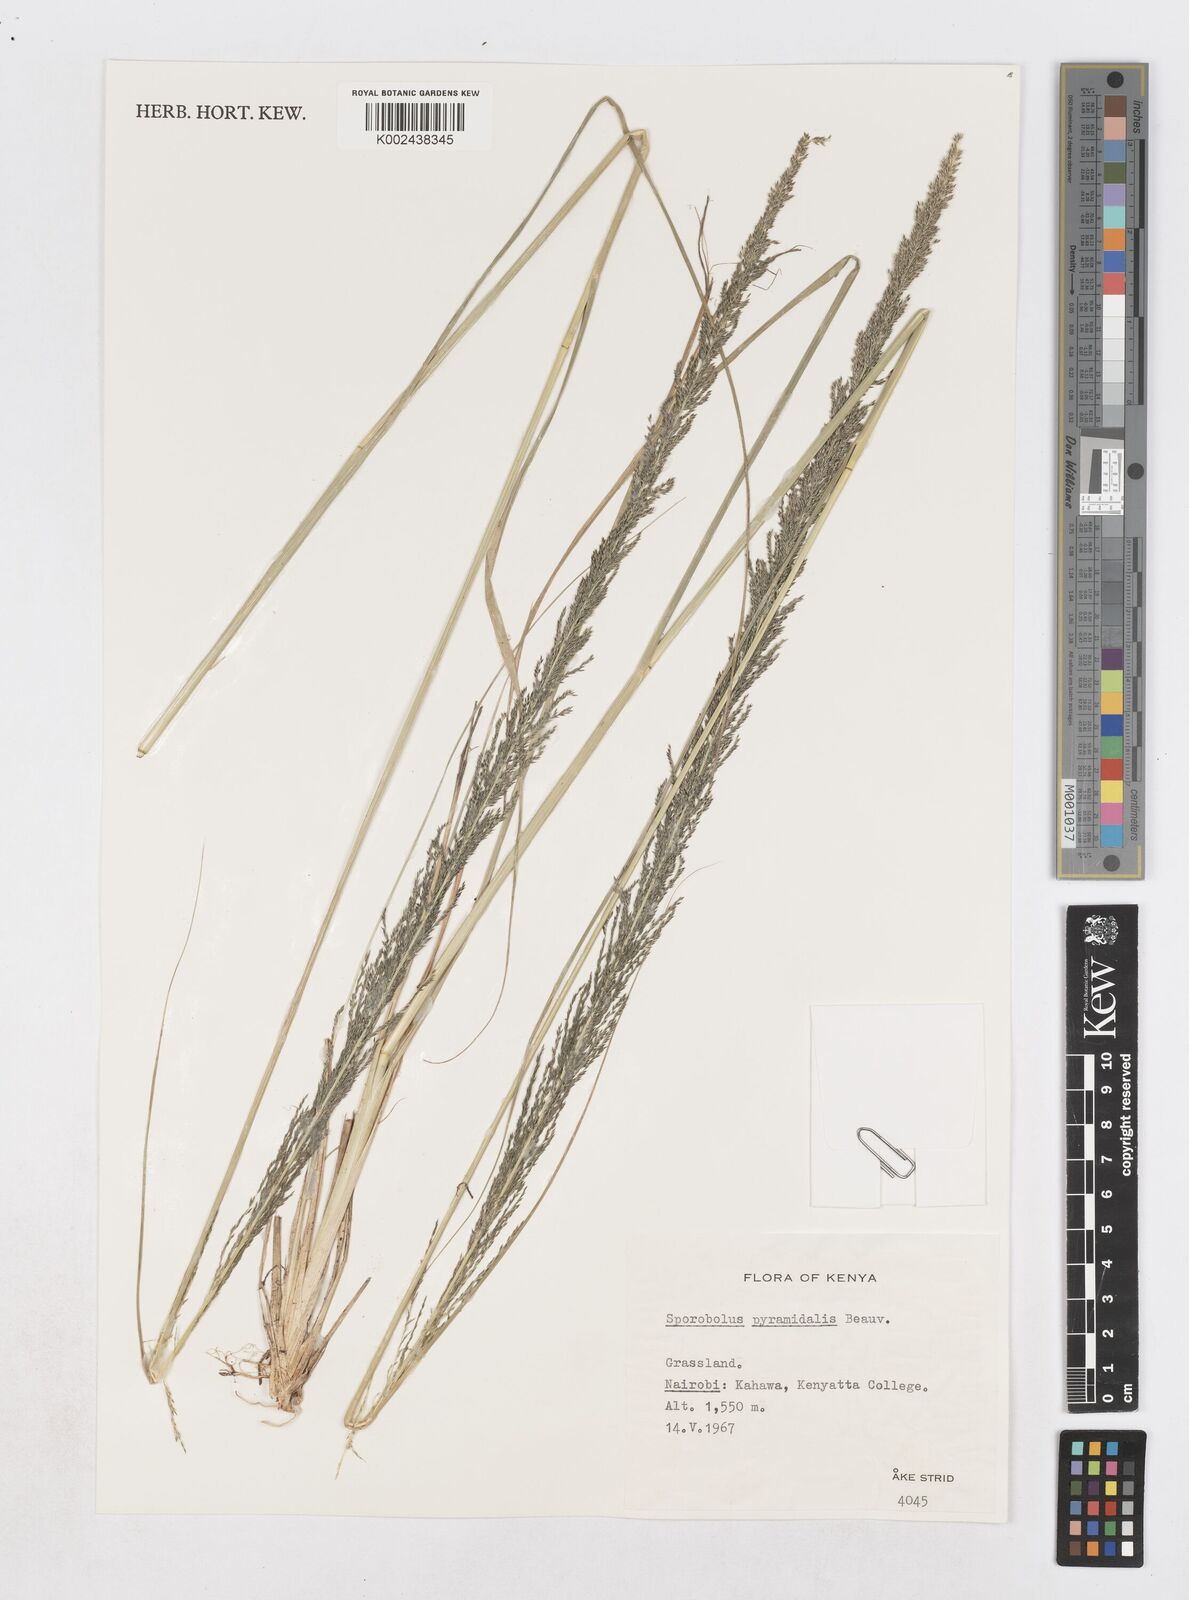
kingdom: Plantae
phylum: Tracheophyta
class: Liliopsida
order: Poales
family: Poaceae
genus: Sporobolus
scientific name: Sporobolus pyramidalis
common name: West indian dropseed
